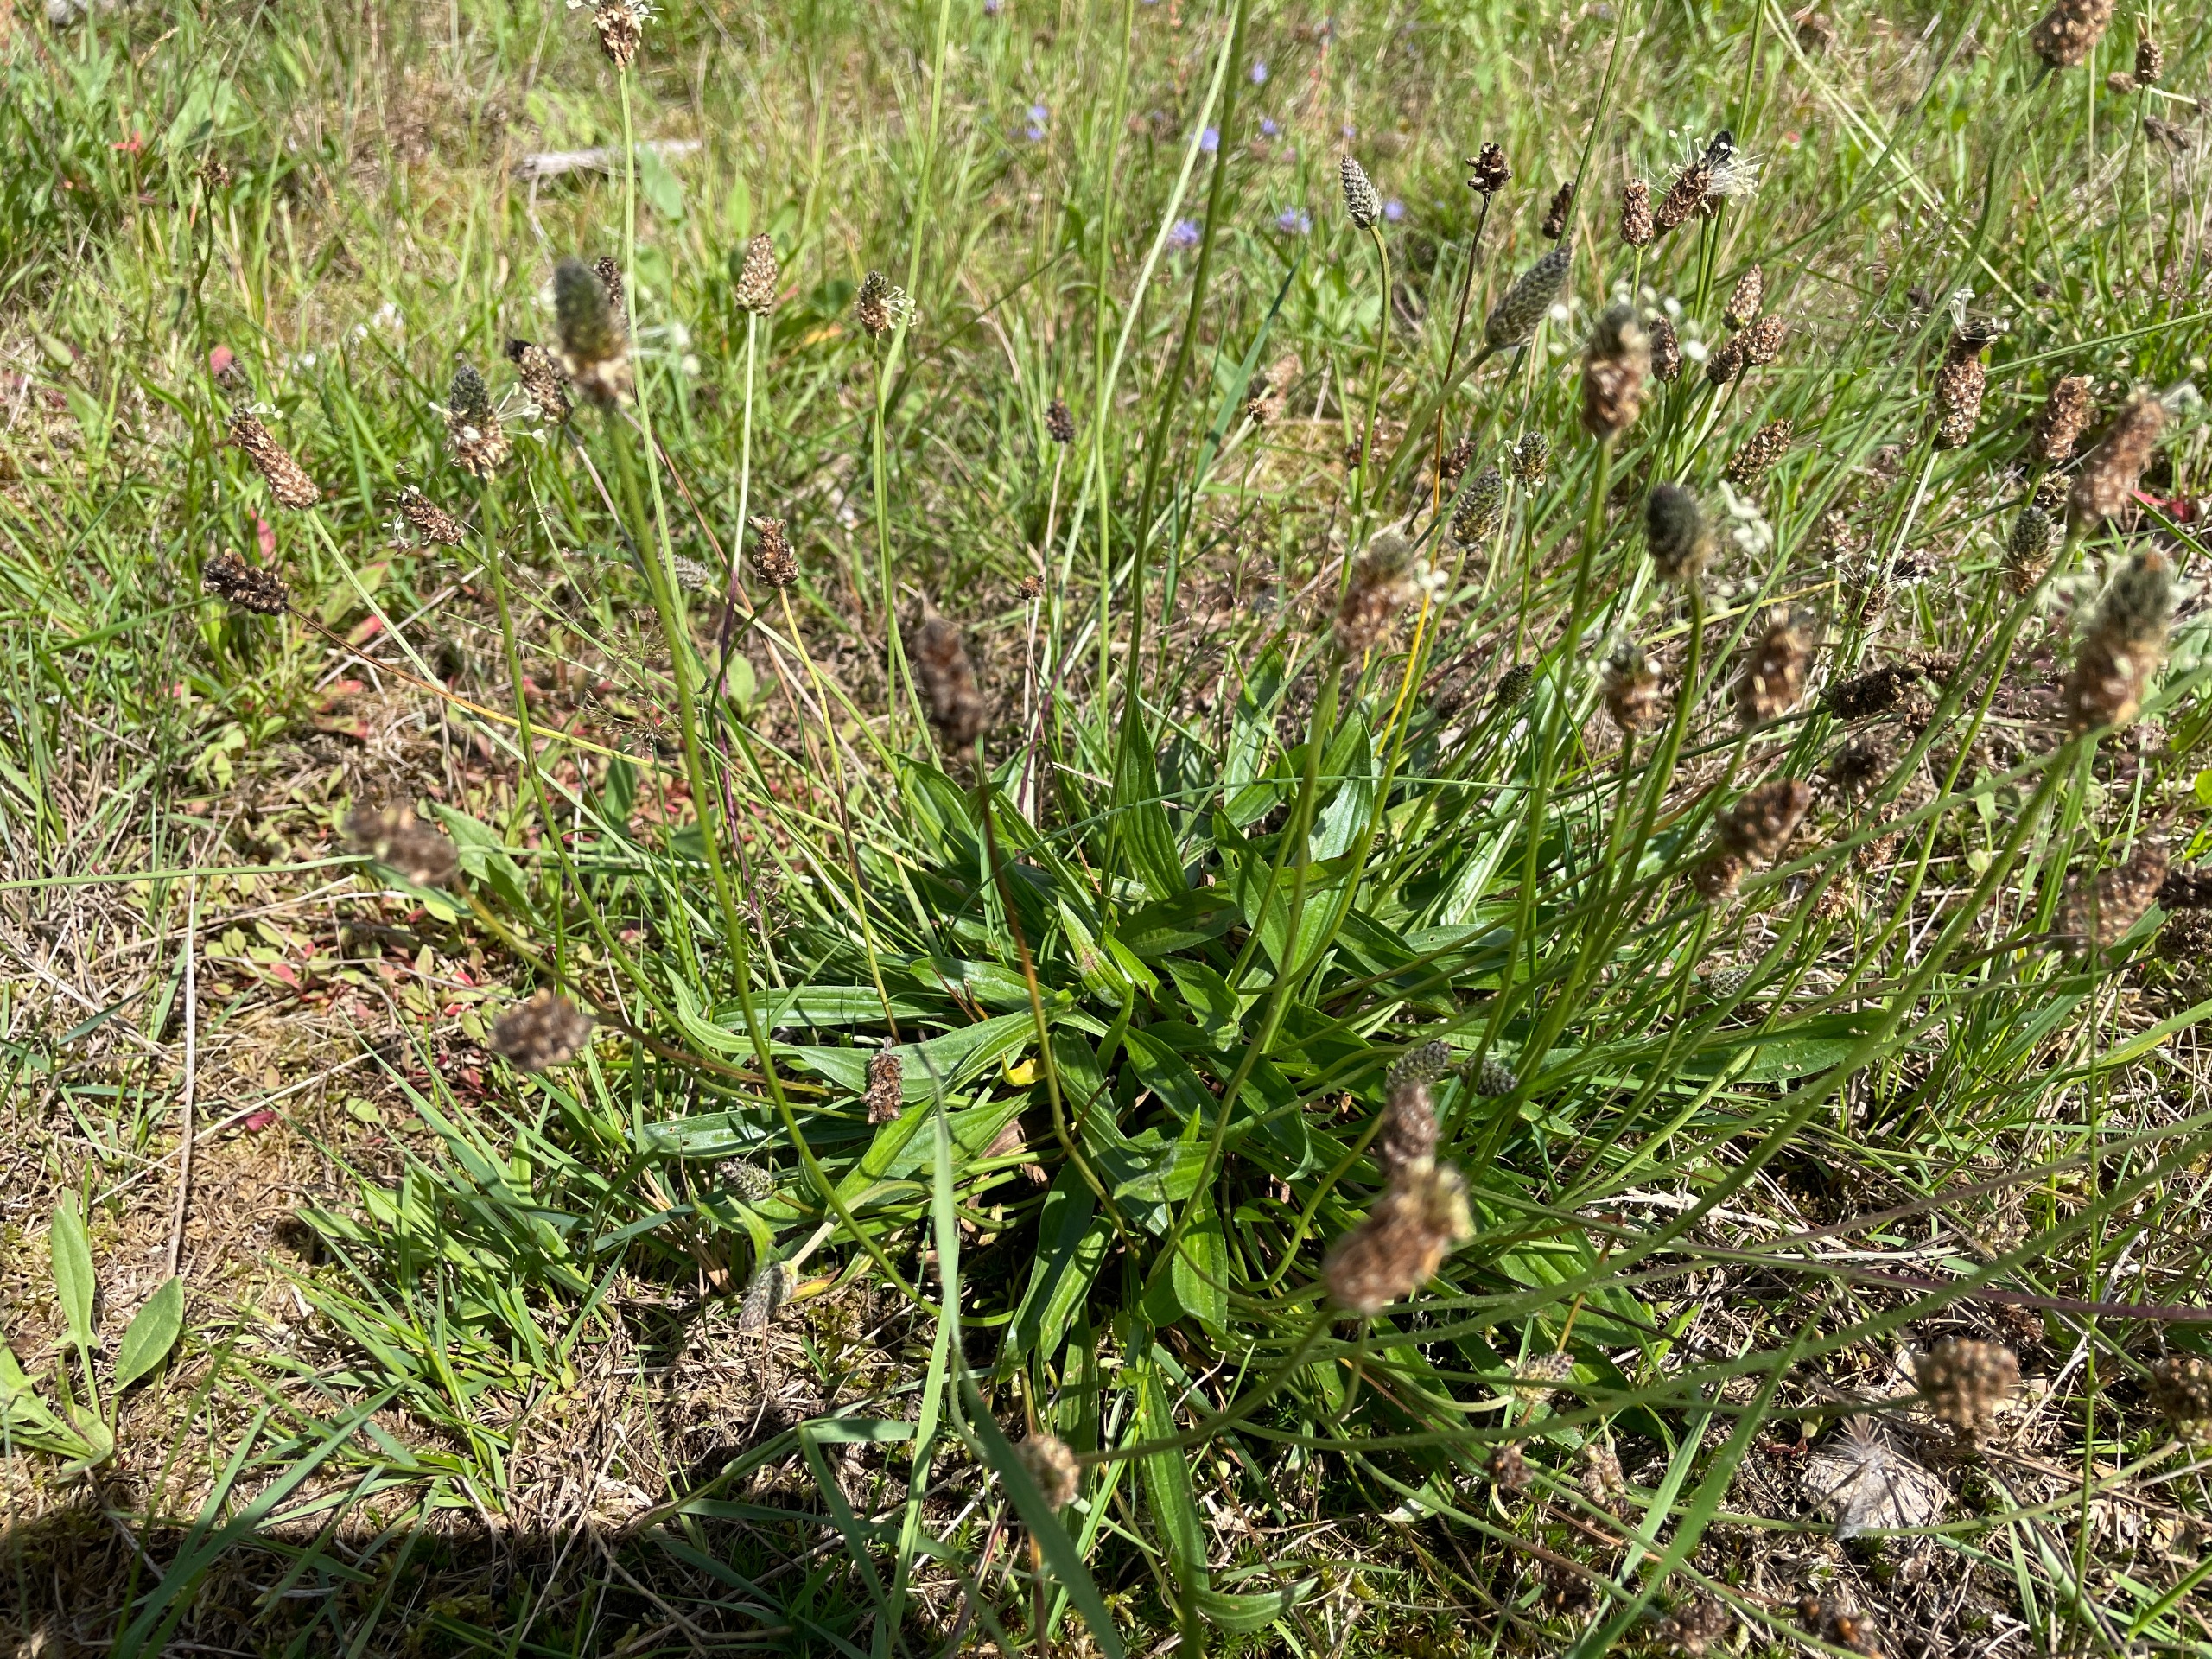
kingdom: Plantae
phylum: Tracheophyta
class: Magnoliopsida
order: Lamiales
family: Plantaginaceae
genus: Plantago
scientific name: Plantago lanceolata
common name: Lancet-vejbred
